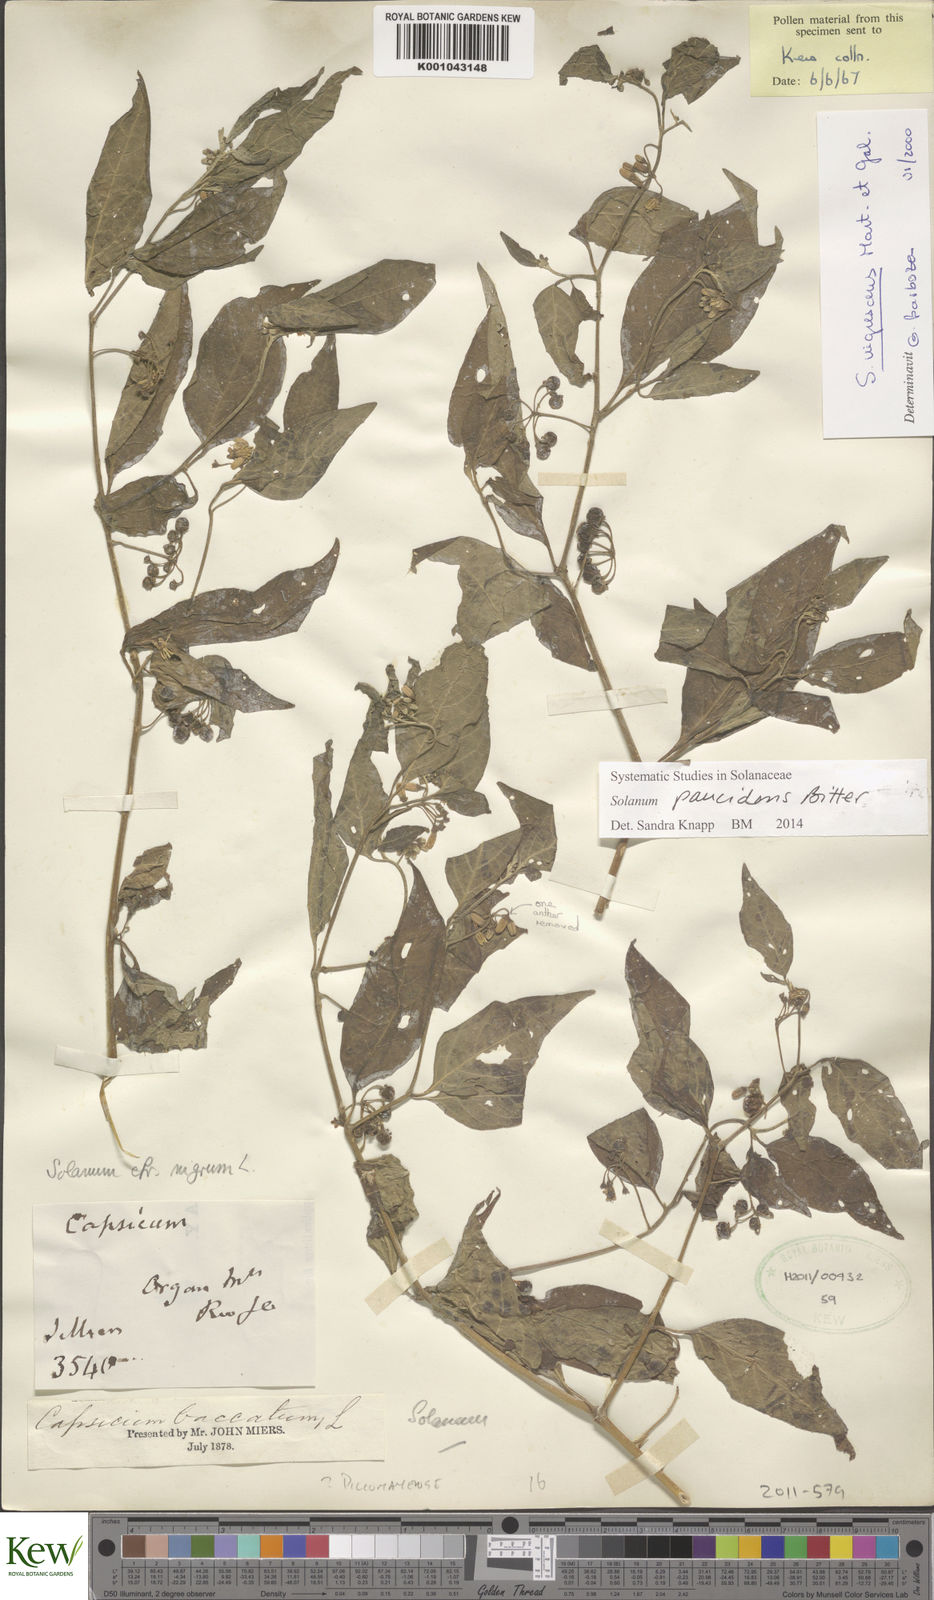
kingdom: Plantae
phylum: Tracheophyta
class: Magnoliopsida
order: Solanales
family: Solanaceae
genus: Solanum
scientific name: Solanum paucidens
